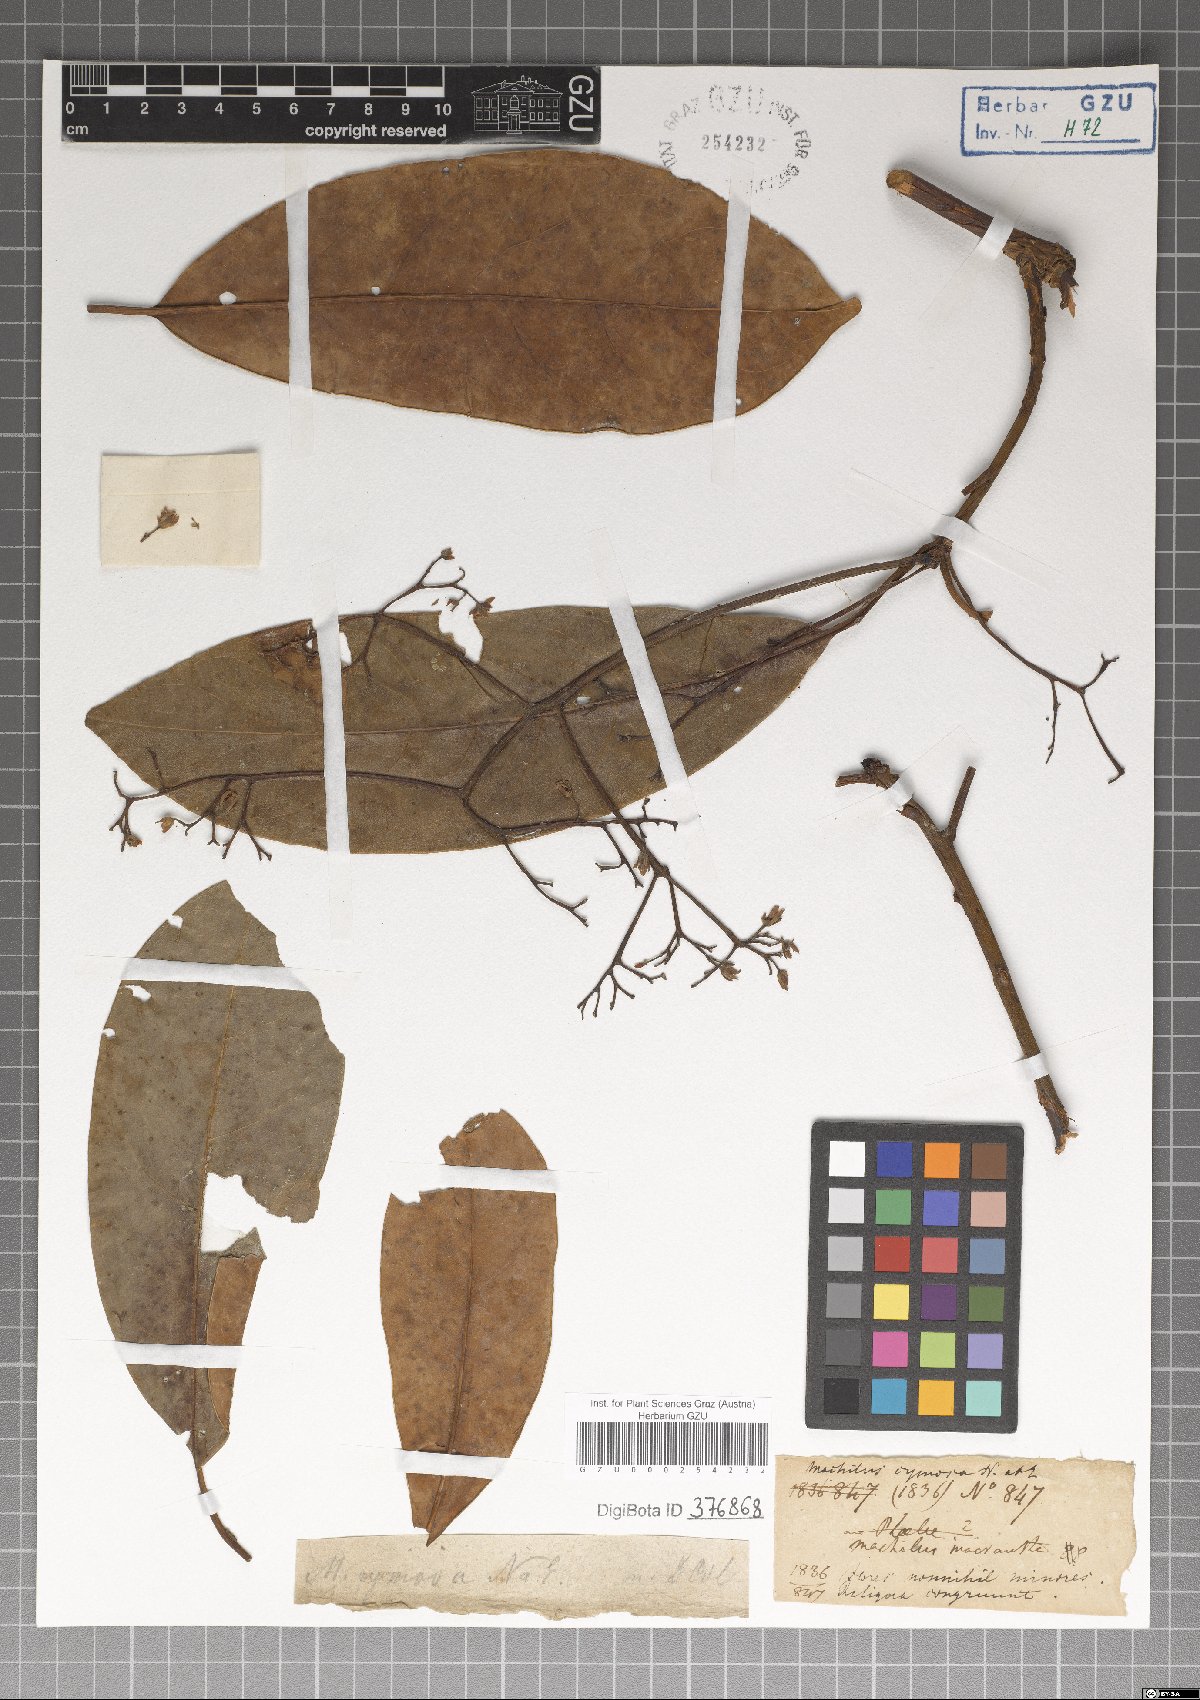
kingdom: Plantae
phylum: Tracheophyta
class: Magnoliopsida
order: Laurales
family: Lauraceae
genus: Machilus
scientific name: Machilus glaucescens
